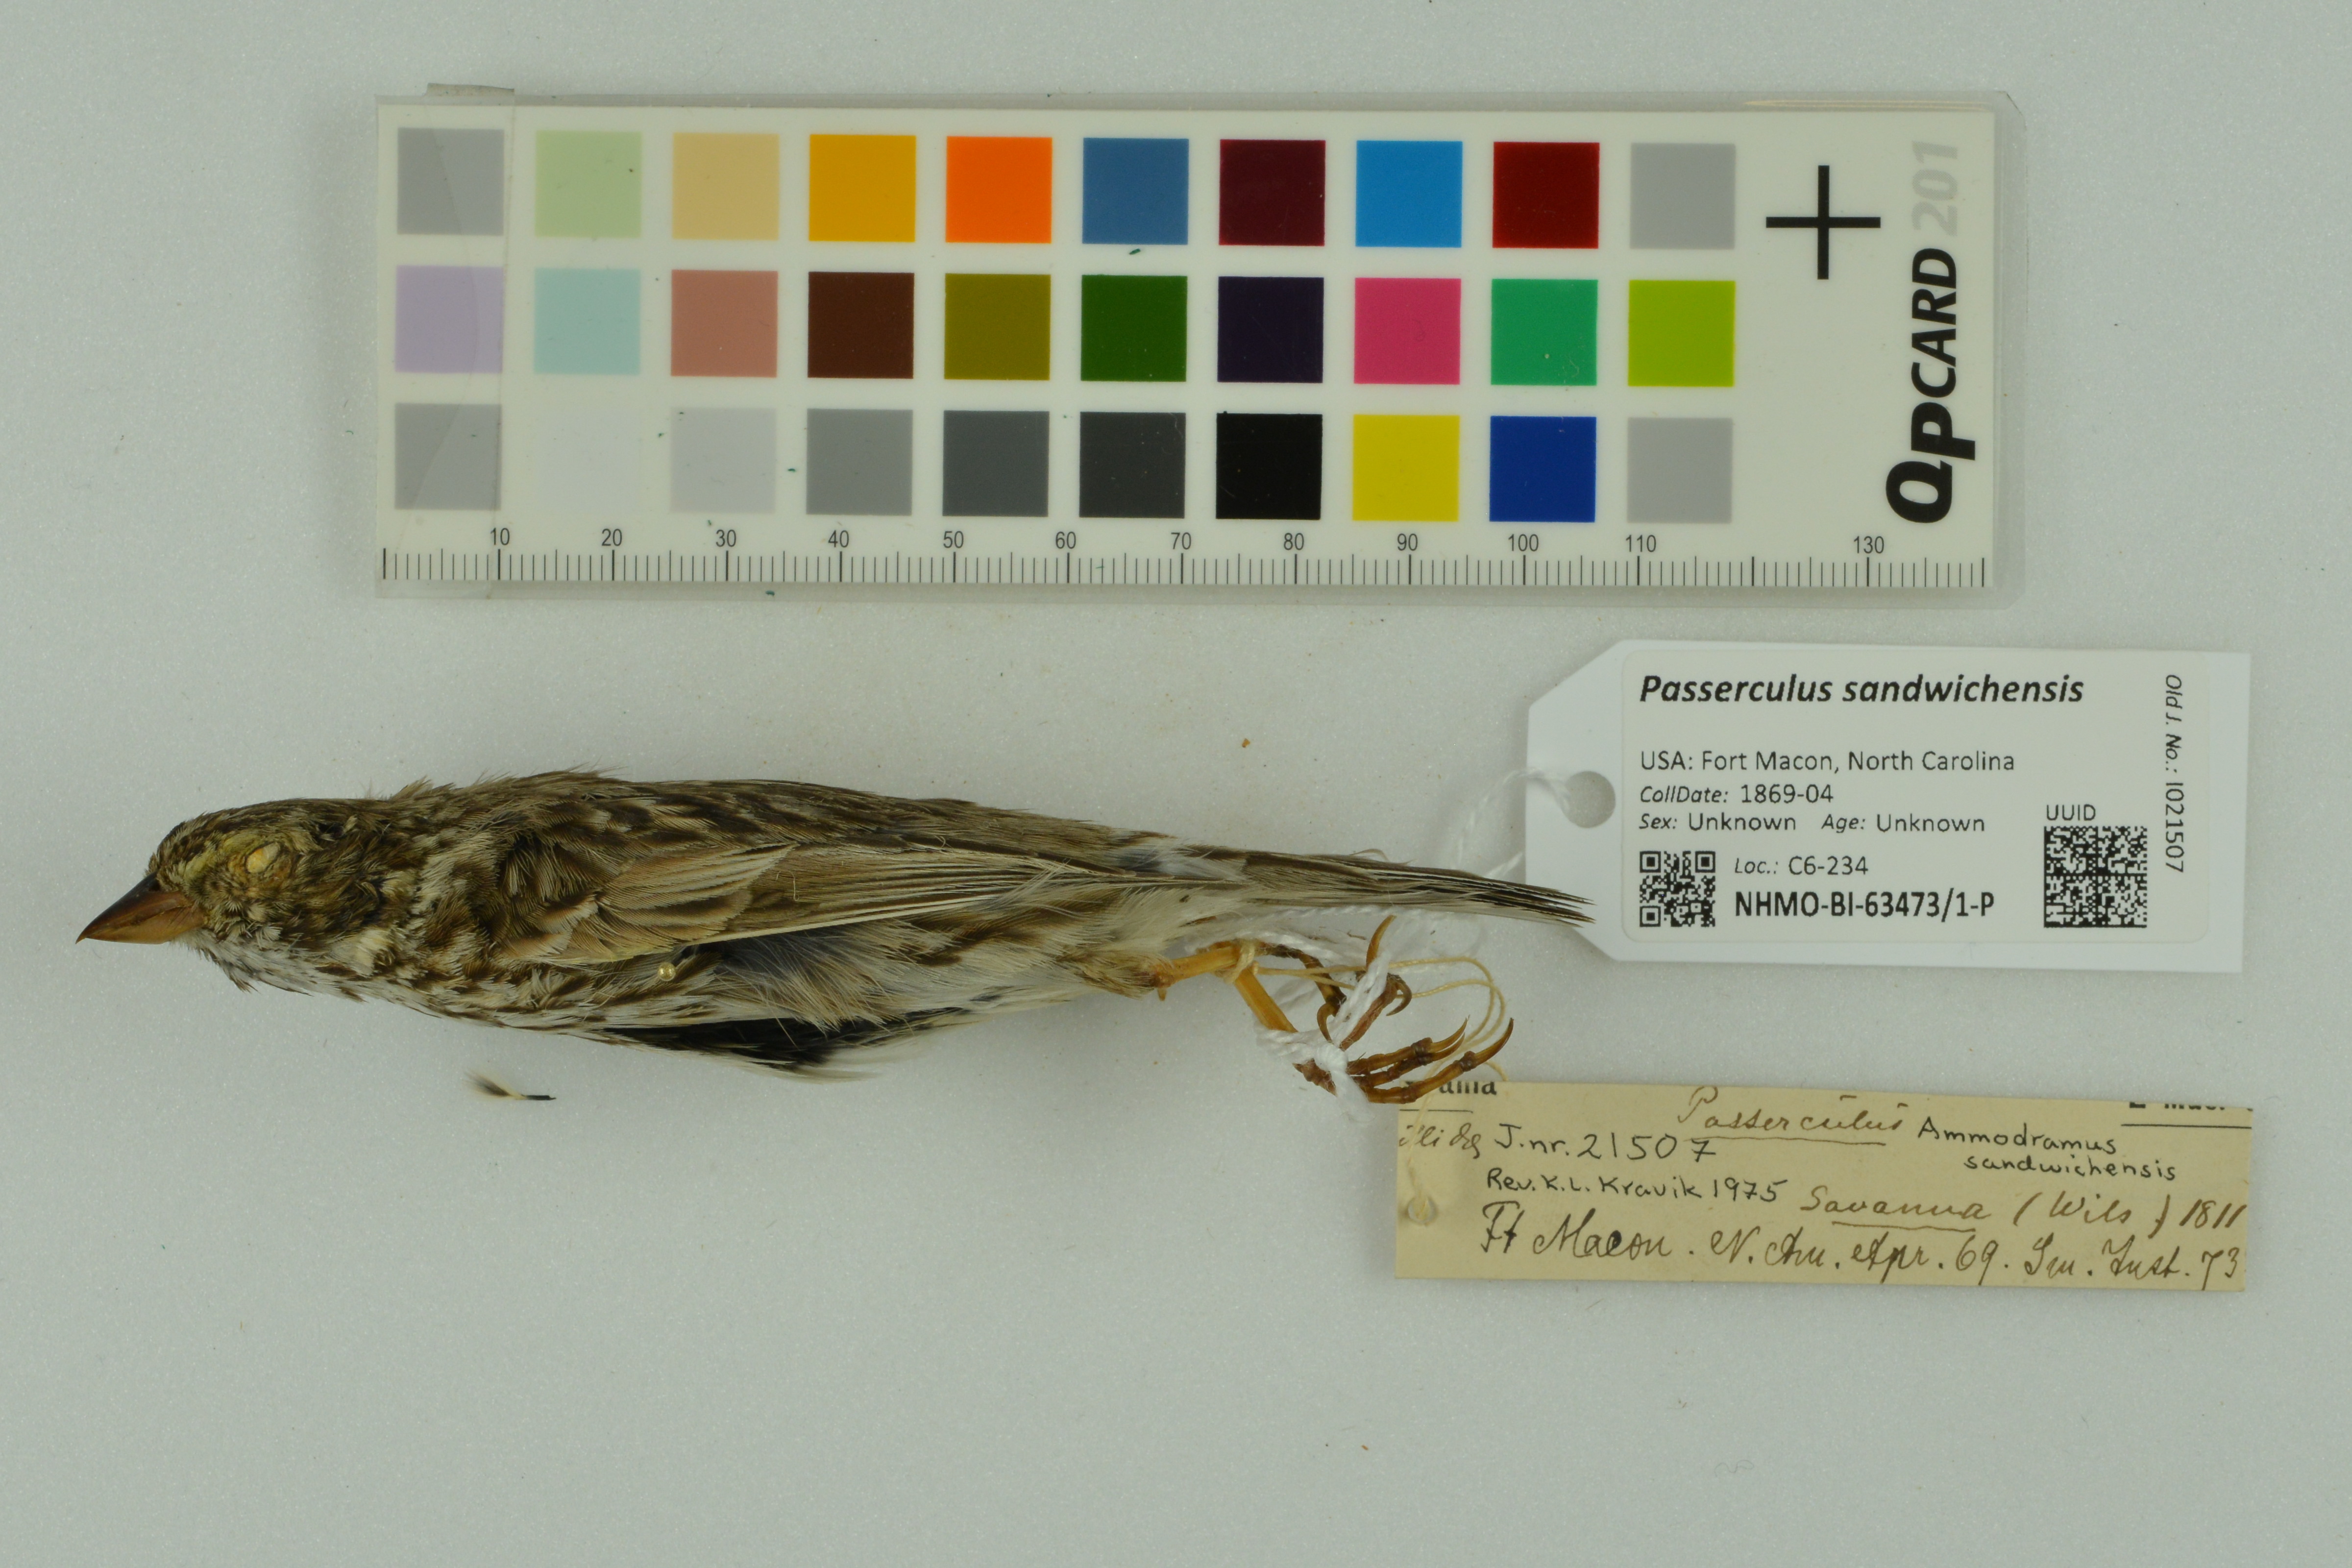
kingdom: Animalia
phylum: Chordata
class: Aves
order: Passeriformes
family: Passerellidae
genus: Passerculus
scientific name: Passerculus sandwichensis
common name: Savannah sparrow
